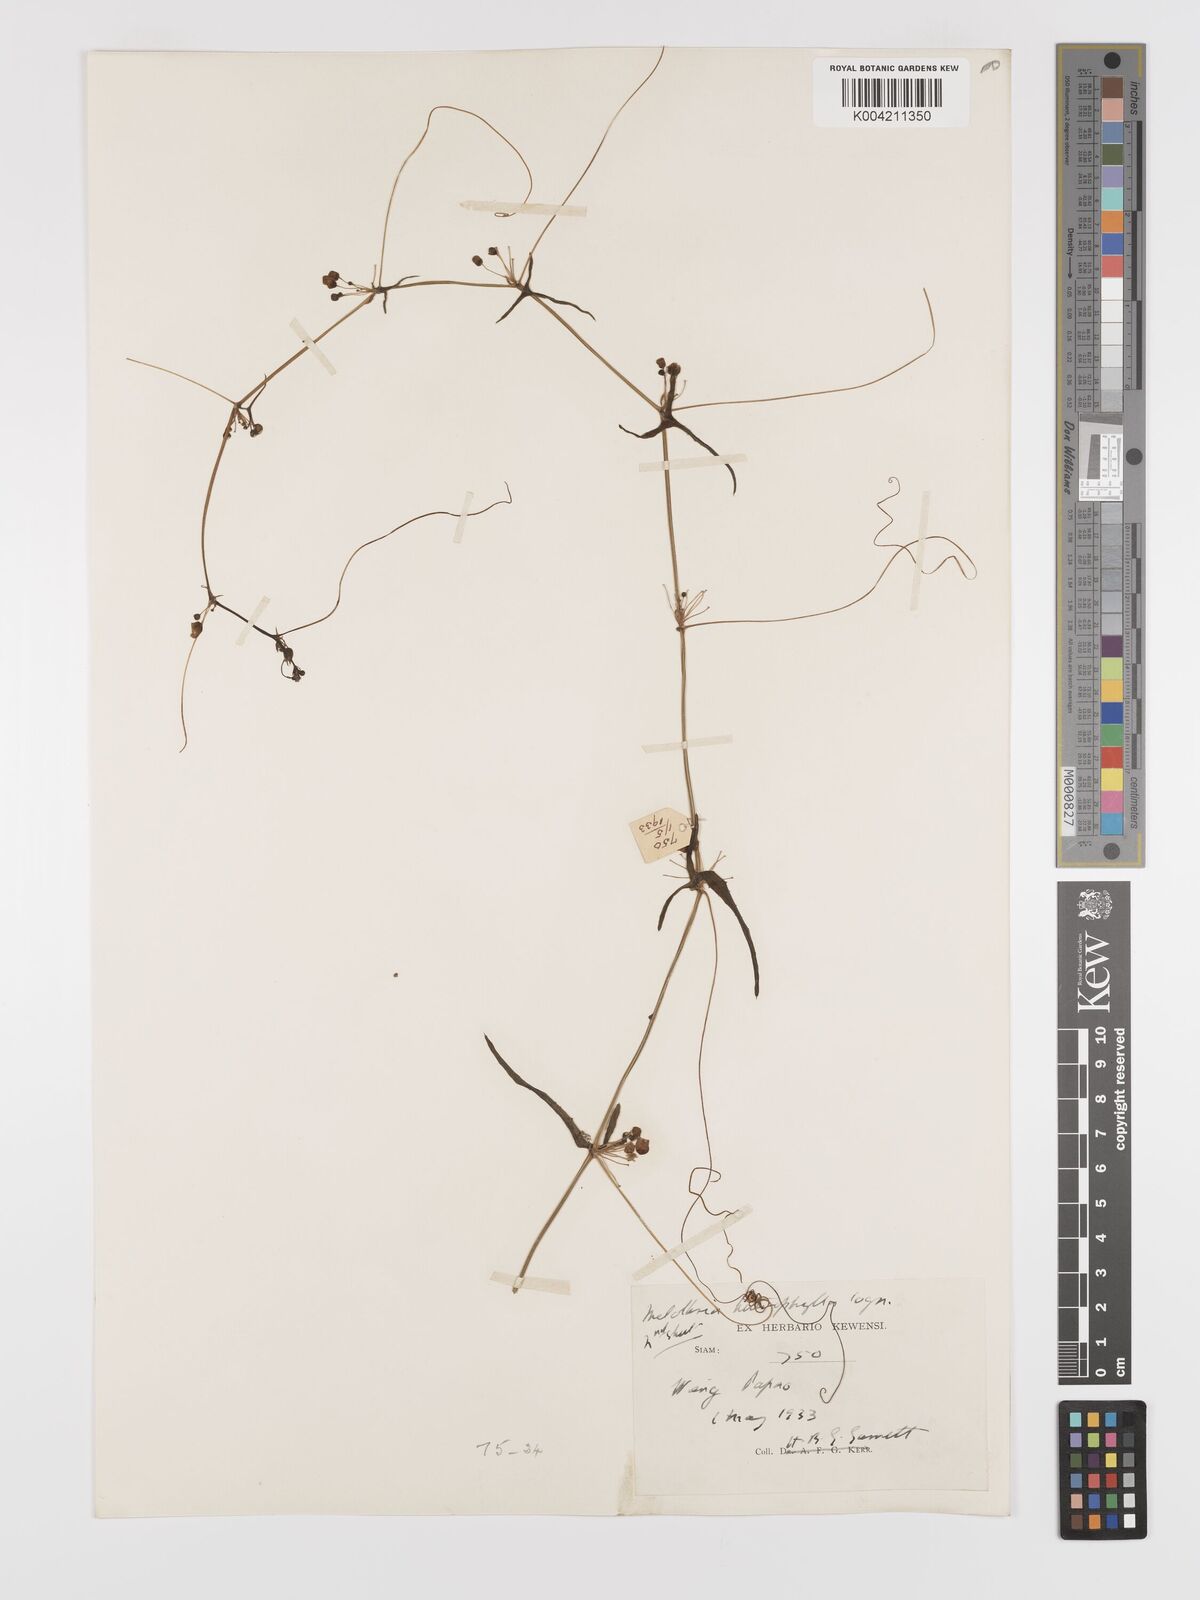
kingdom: Plantae
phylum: Tracheophyta
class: Magnoliopsida
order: Cucurbitales
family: Cucurbitaceae
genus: Solena
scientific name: Solena amplexicaulis
